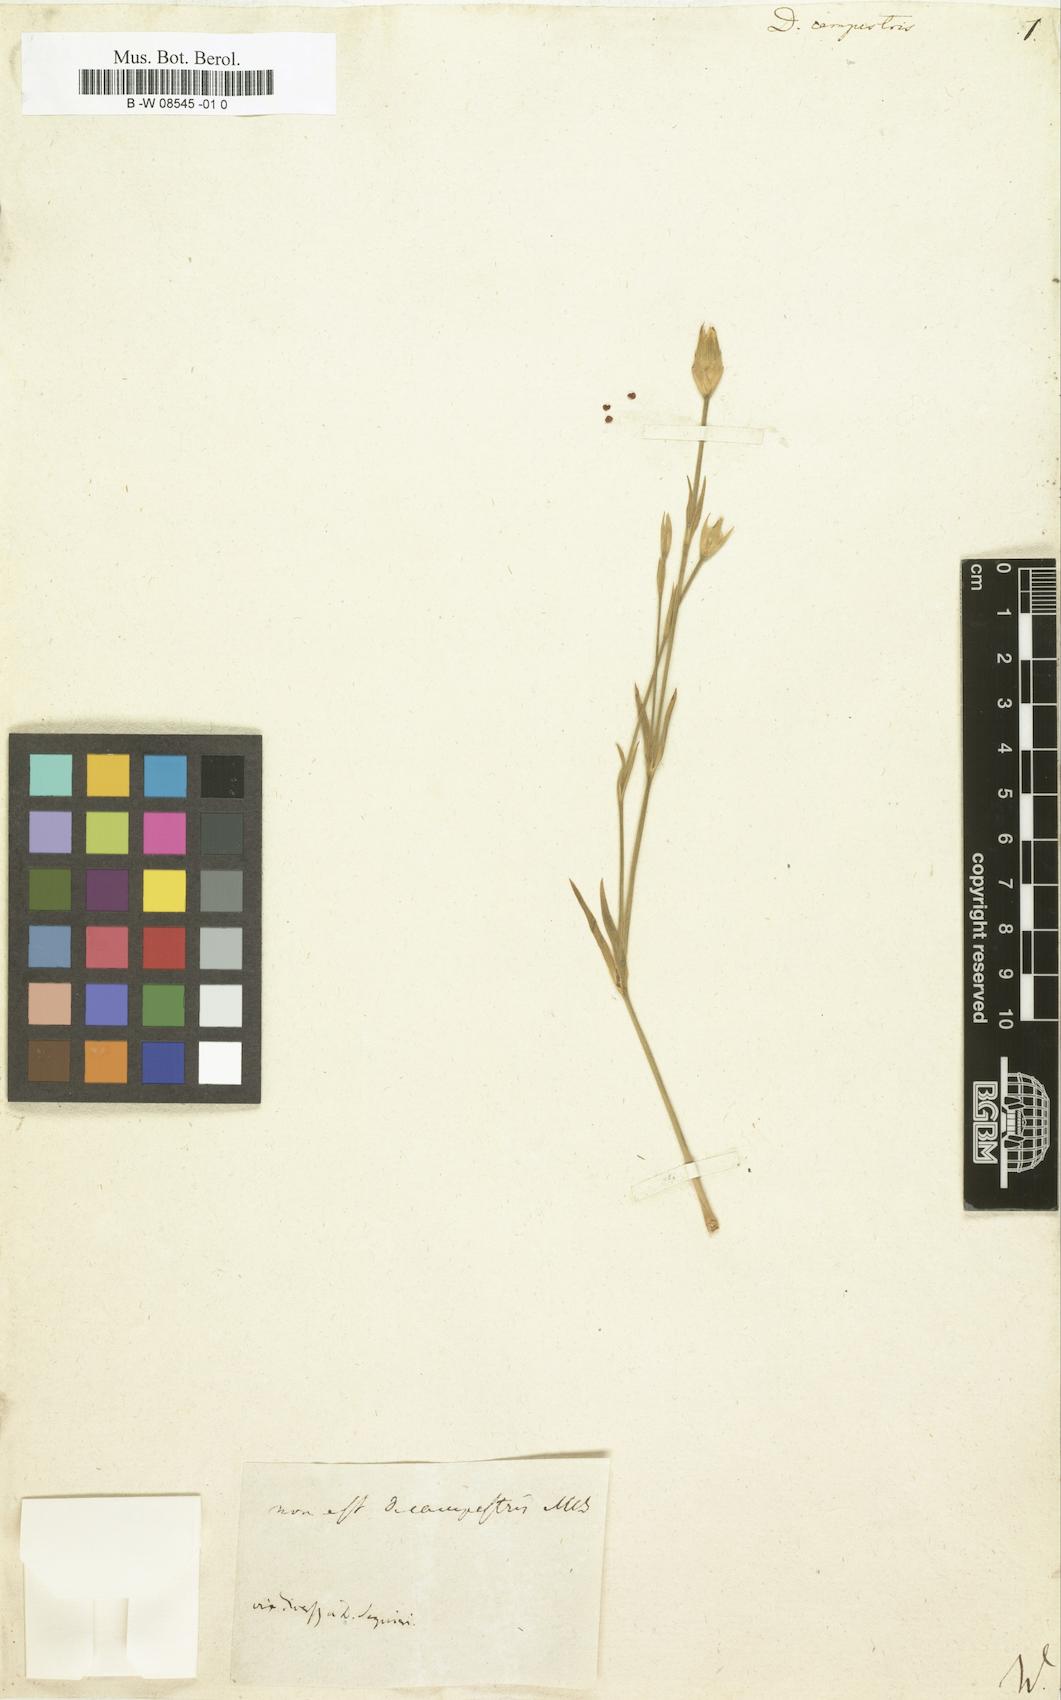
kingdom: Plantae
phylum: Tracheophyta
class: Magnoliopsida
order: Caryophyllales
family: Caryophyllaceae
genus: Dianthus
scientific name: Dianthus campestris
